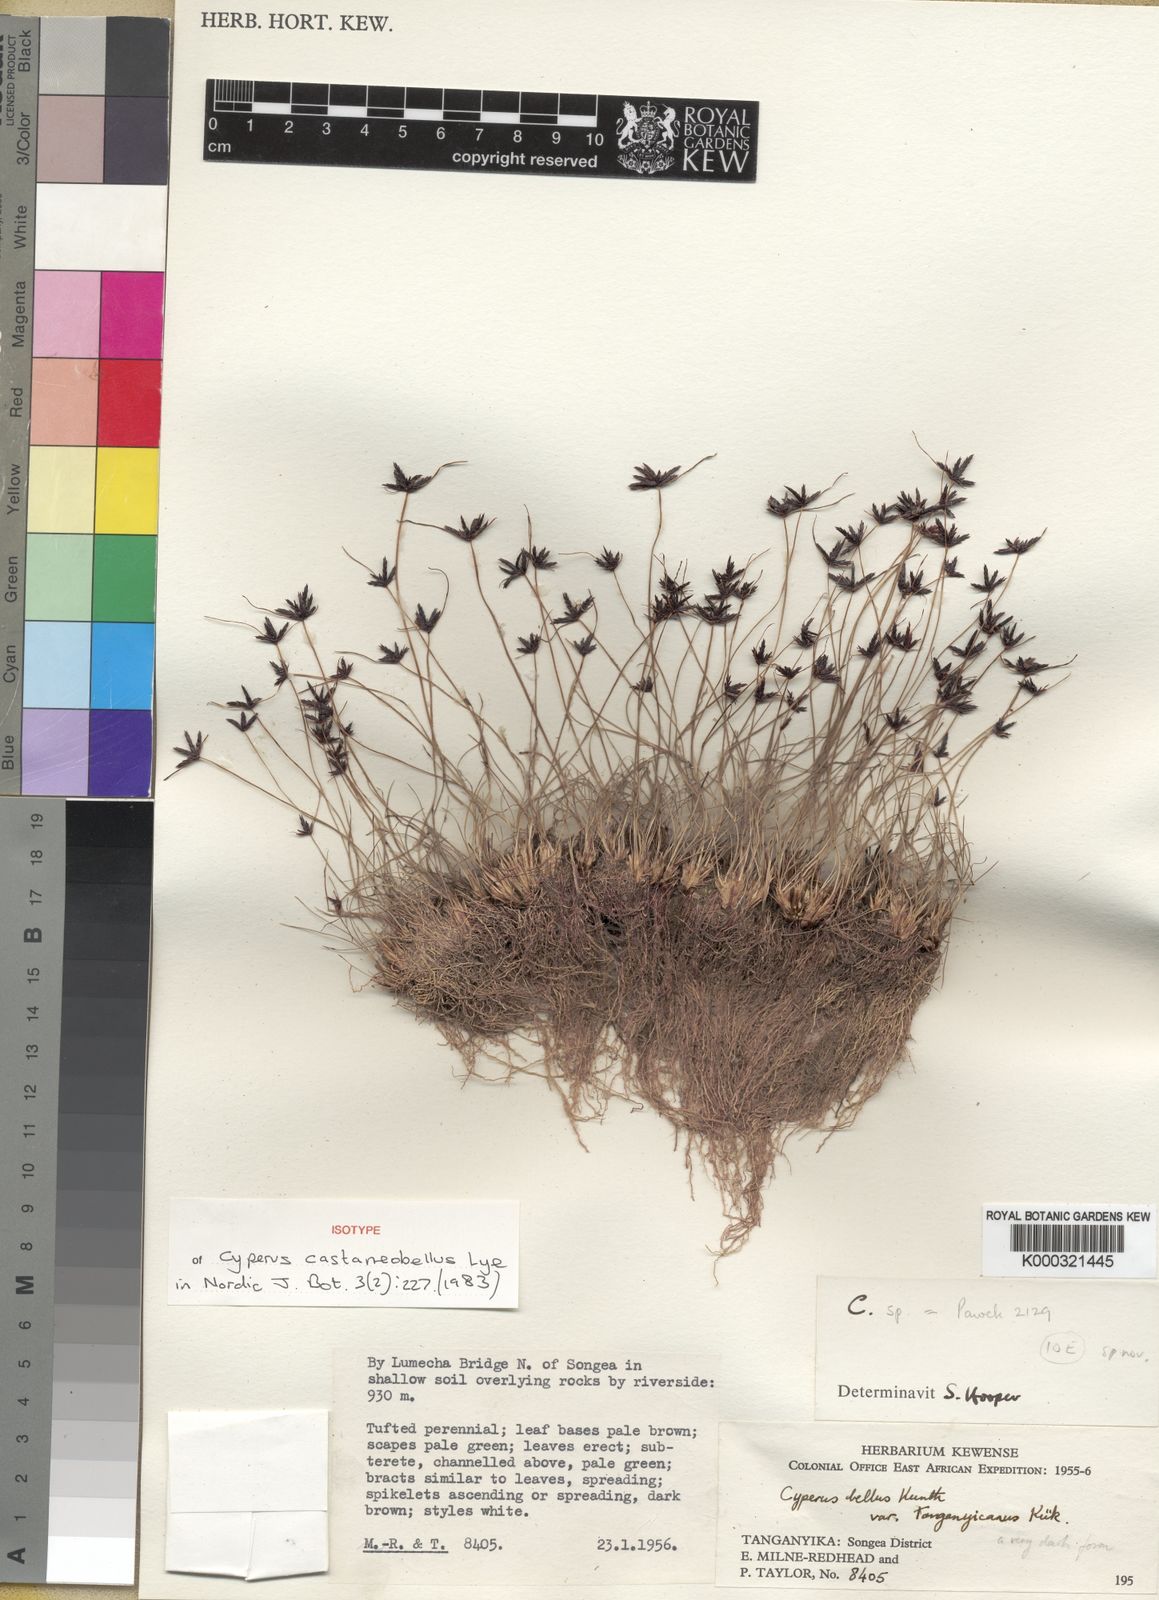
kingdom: Plantae
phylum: Tracheophyta
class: Liliopsida
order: Poales
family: Cyperaceae
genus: Cyperus
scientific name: Cyperus castaneobellus
